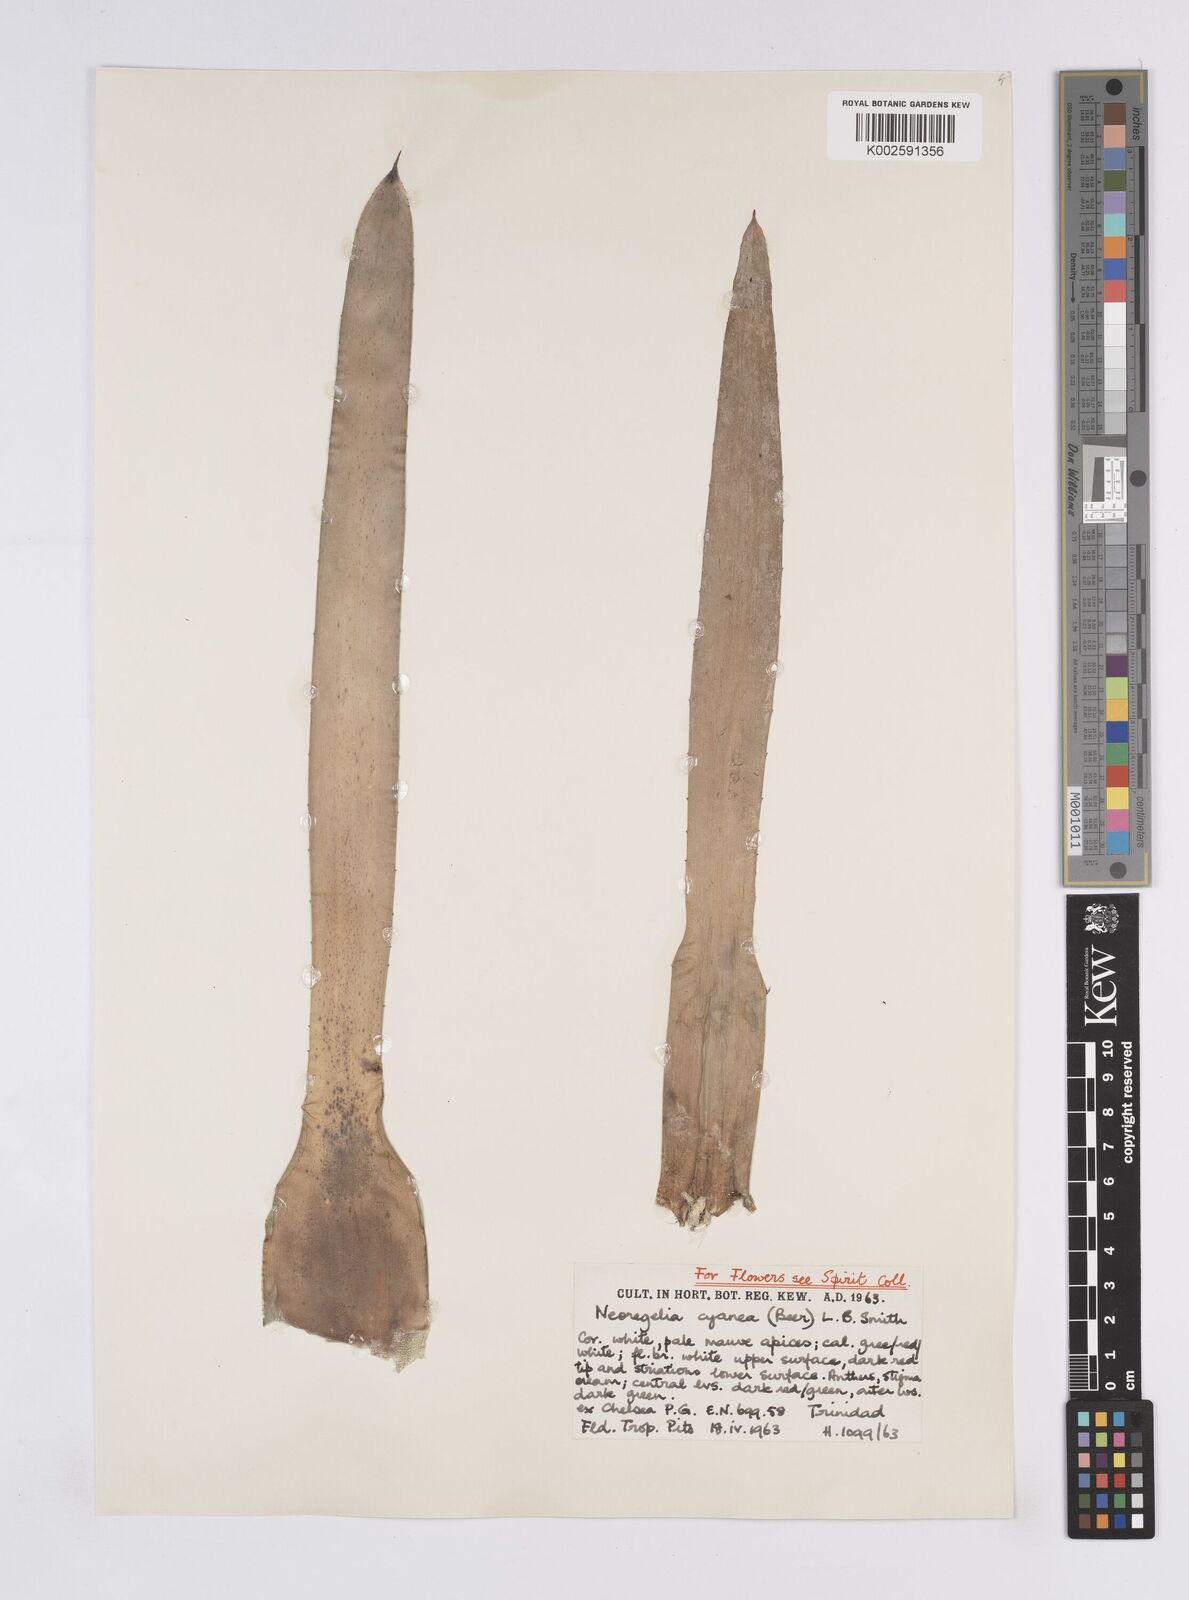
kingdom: Plantae
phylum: Tracheophyta
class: Liliopsida
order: Poales
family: Bromeliaceae
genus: Neoregelia
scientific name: Neoregelia cyanea
